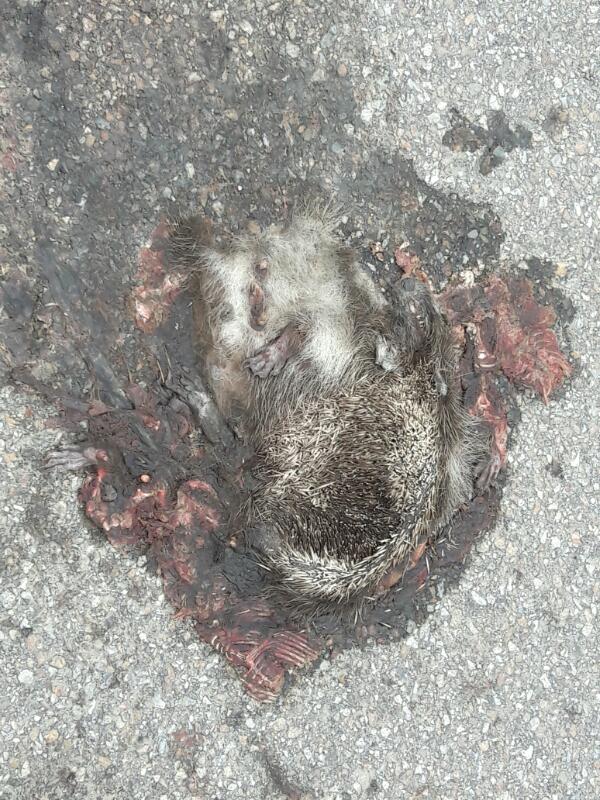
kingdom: Animalia
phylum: Chordata
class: Mammalia
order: Erinaceomorpha
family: Erinaceidae
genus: Erinaceus
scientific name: Erinaceus
